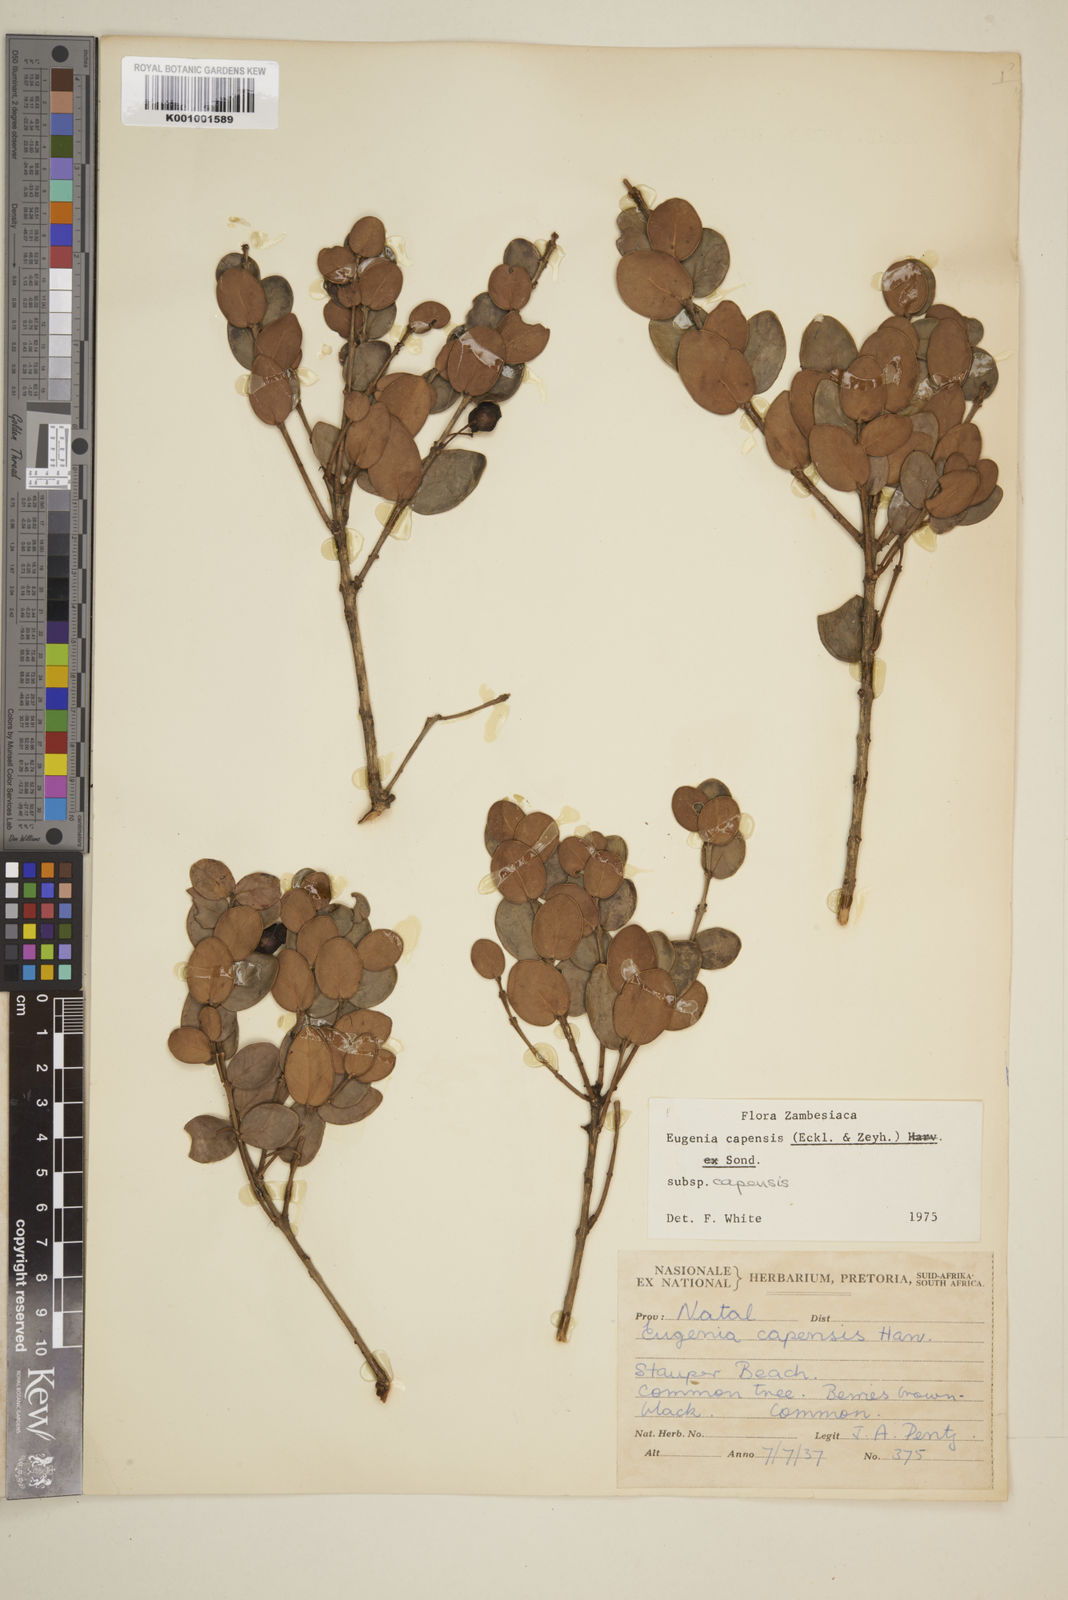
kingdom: Plantae
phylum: Tracheophyta
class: Magnoliopsida
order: Myrtales
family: Myrtaceae
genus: Eugenia
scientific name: Eugenia capensis
